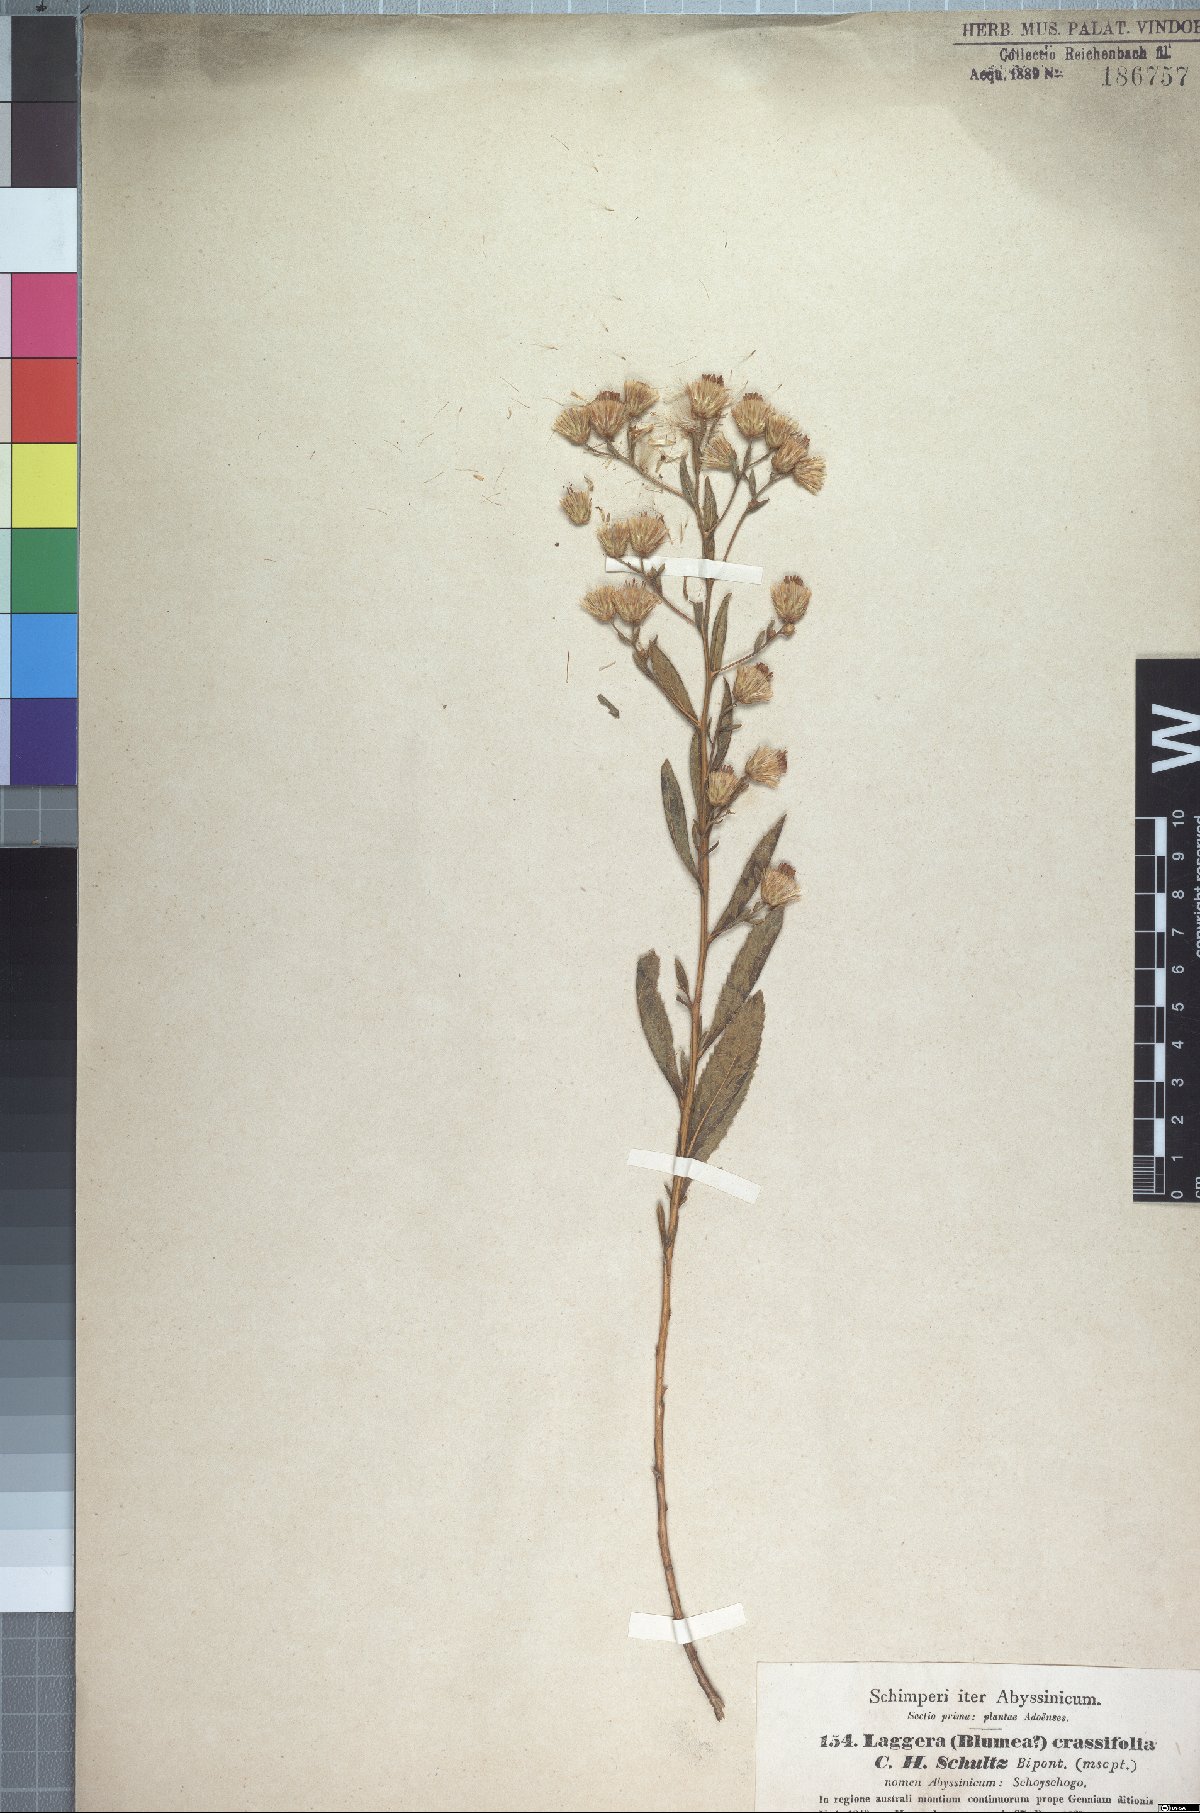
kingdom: Plantae
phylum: Tracheophyta
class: Magnoliopsida
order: Asterales
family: Asteraceae
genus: Laggera
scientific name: Laggera crassifolia
